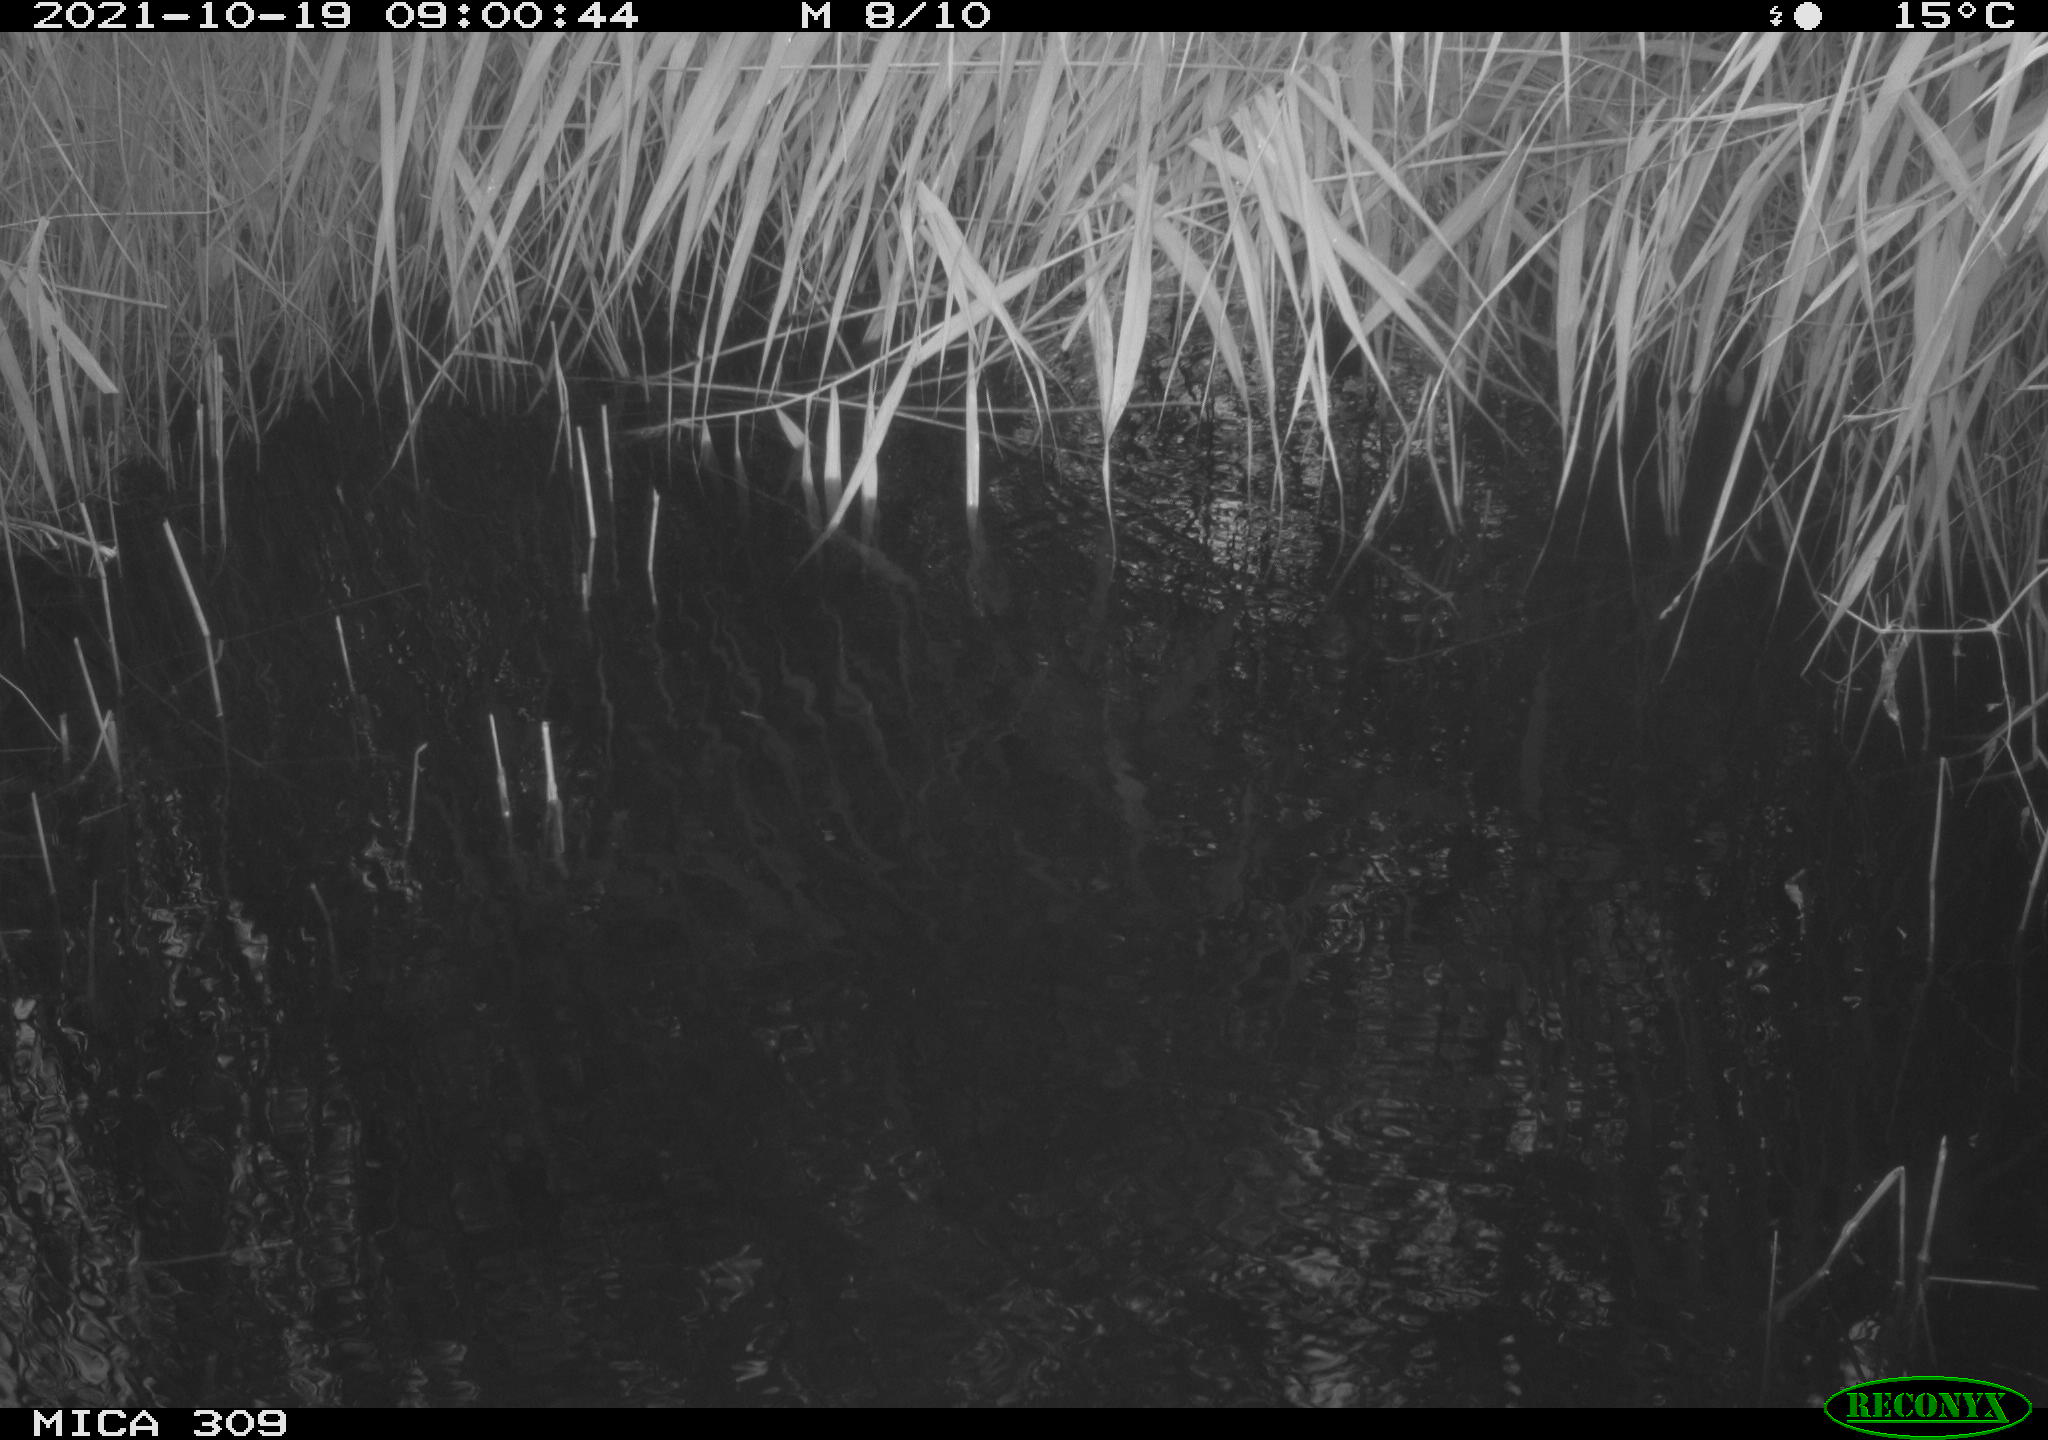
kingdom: Animalia
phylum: Chordata
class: Aves
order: Gruiformes
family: Rallidae
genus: Gallinula
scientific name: Gallinula chloropus
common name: Common moorhen
